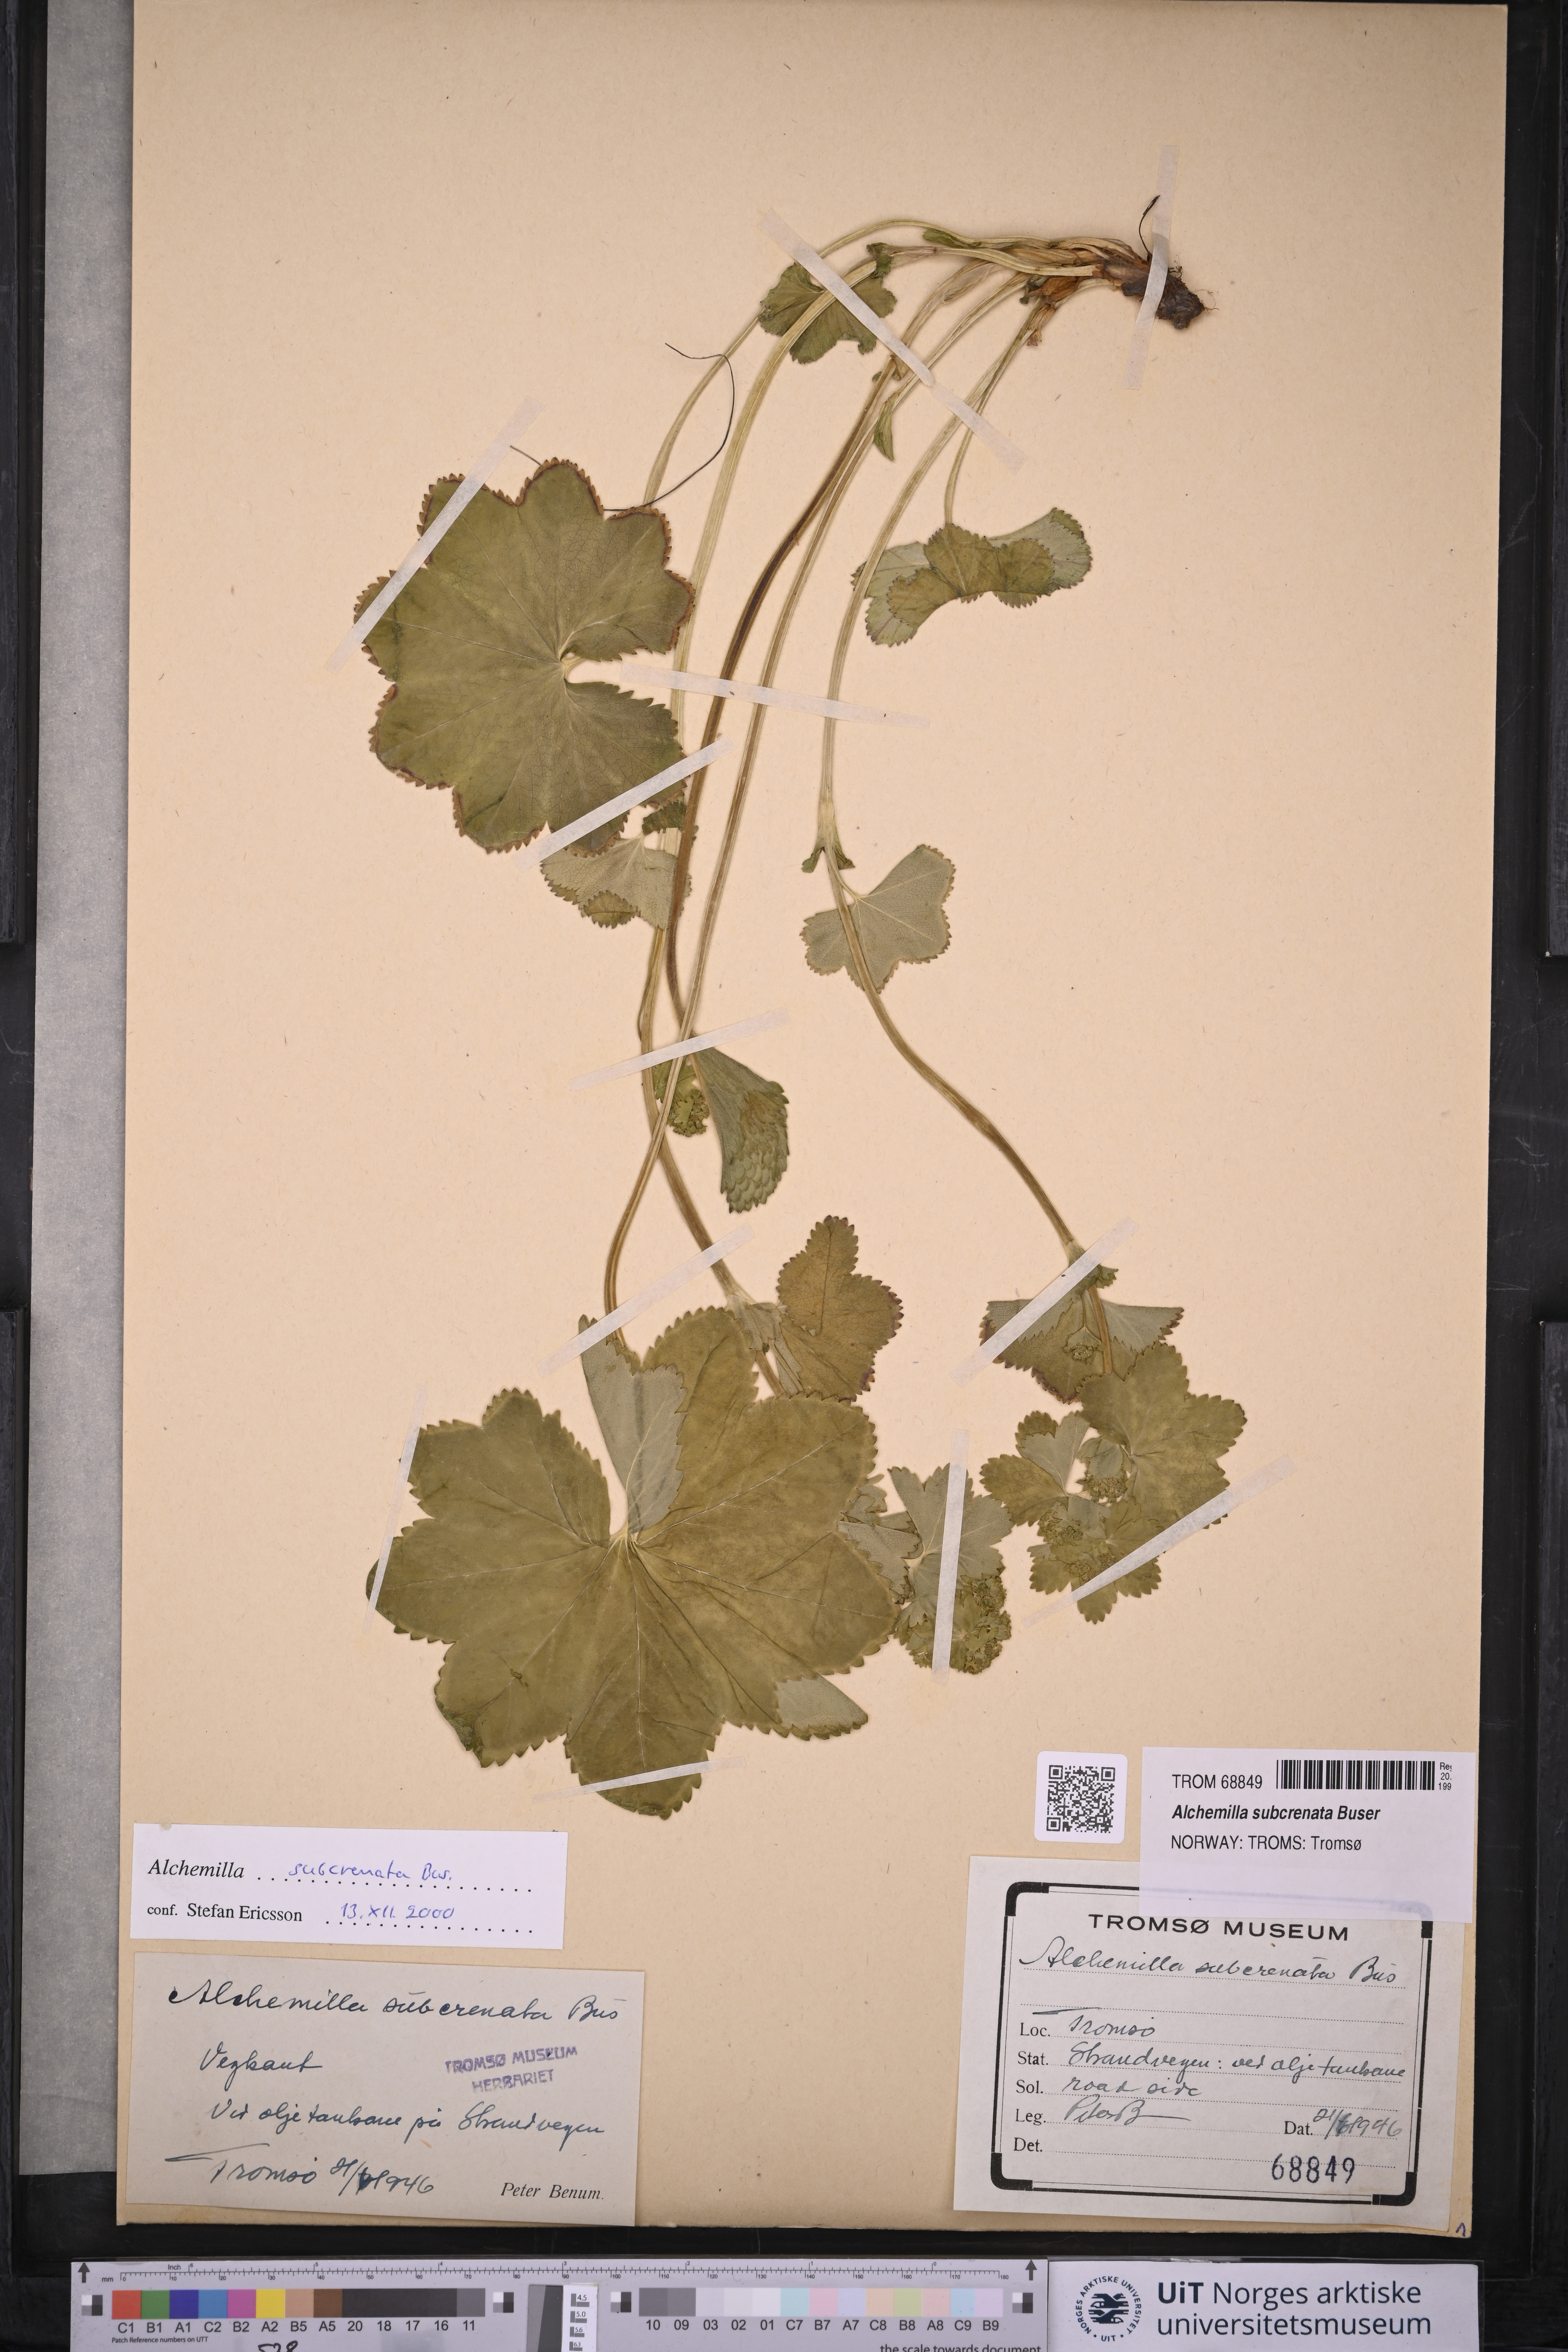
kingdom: Plantae
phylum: Tracheophyta
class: Magnoliopsida
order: Rosales
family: Rosaceae
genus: Alchemilla
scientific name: Alchemilla subcrenata
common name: Broadtooth lady's mantle
